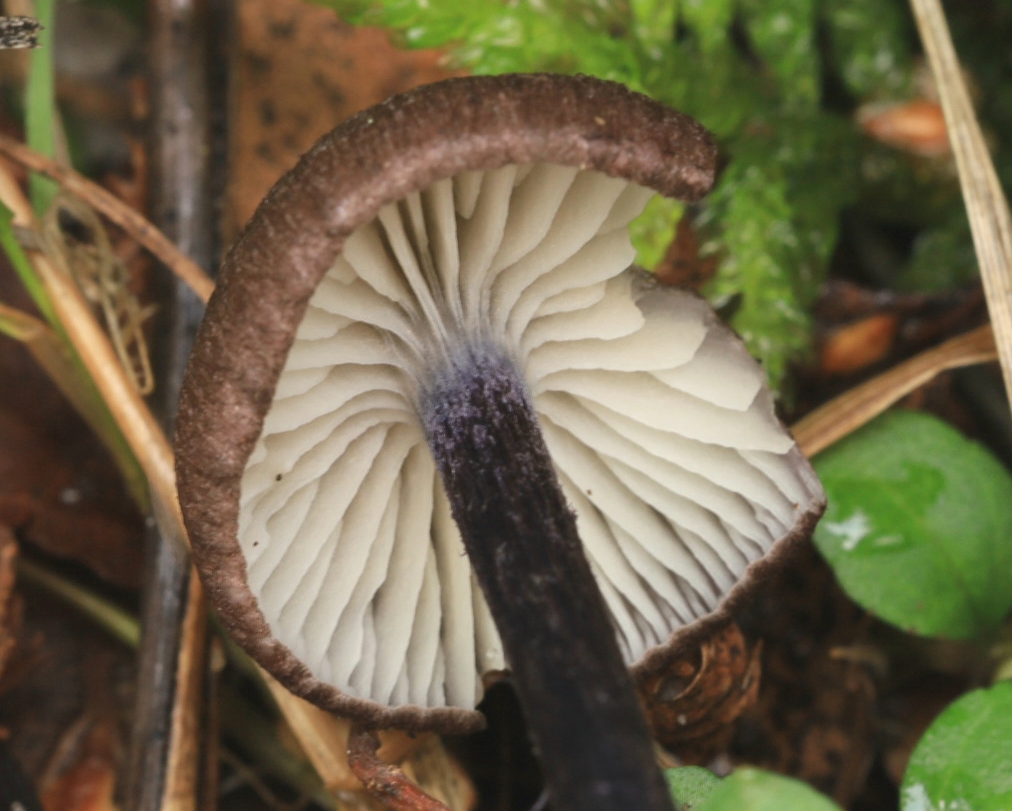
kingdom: Fungi
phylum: Basidiomycota
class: Agaricomycetes
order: Agaricales
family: Entolomataceae
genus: Entoloma
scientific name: Entoloma lampropus
